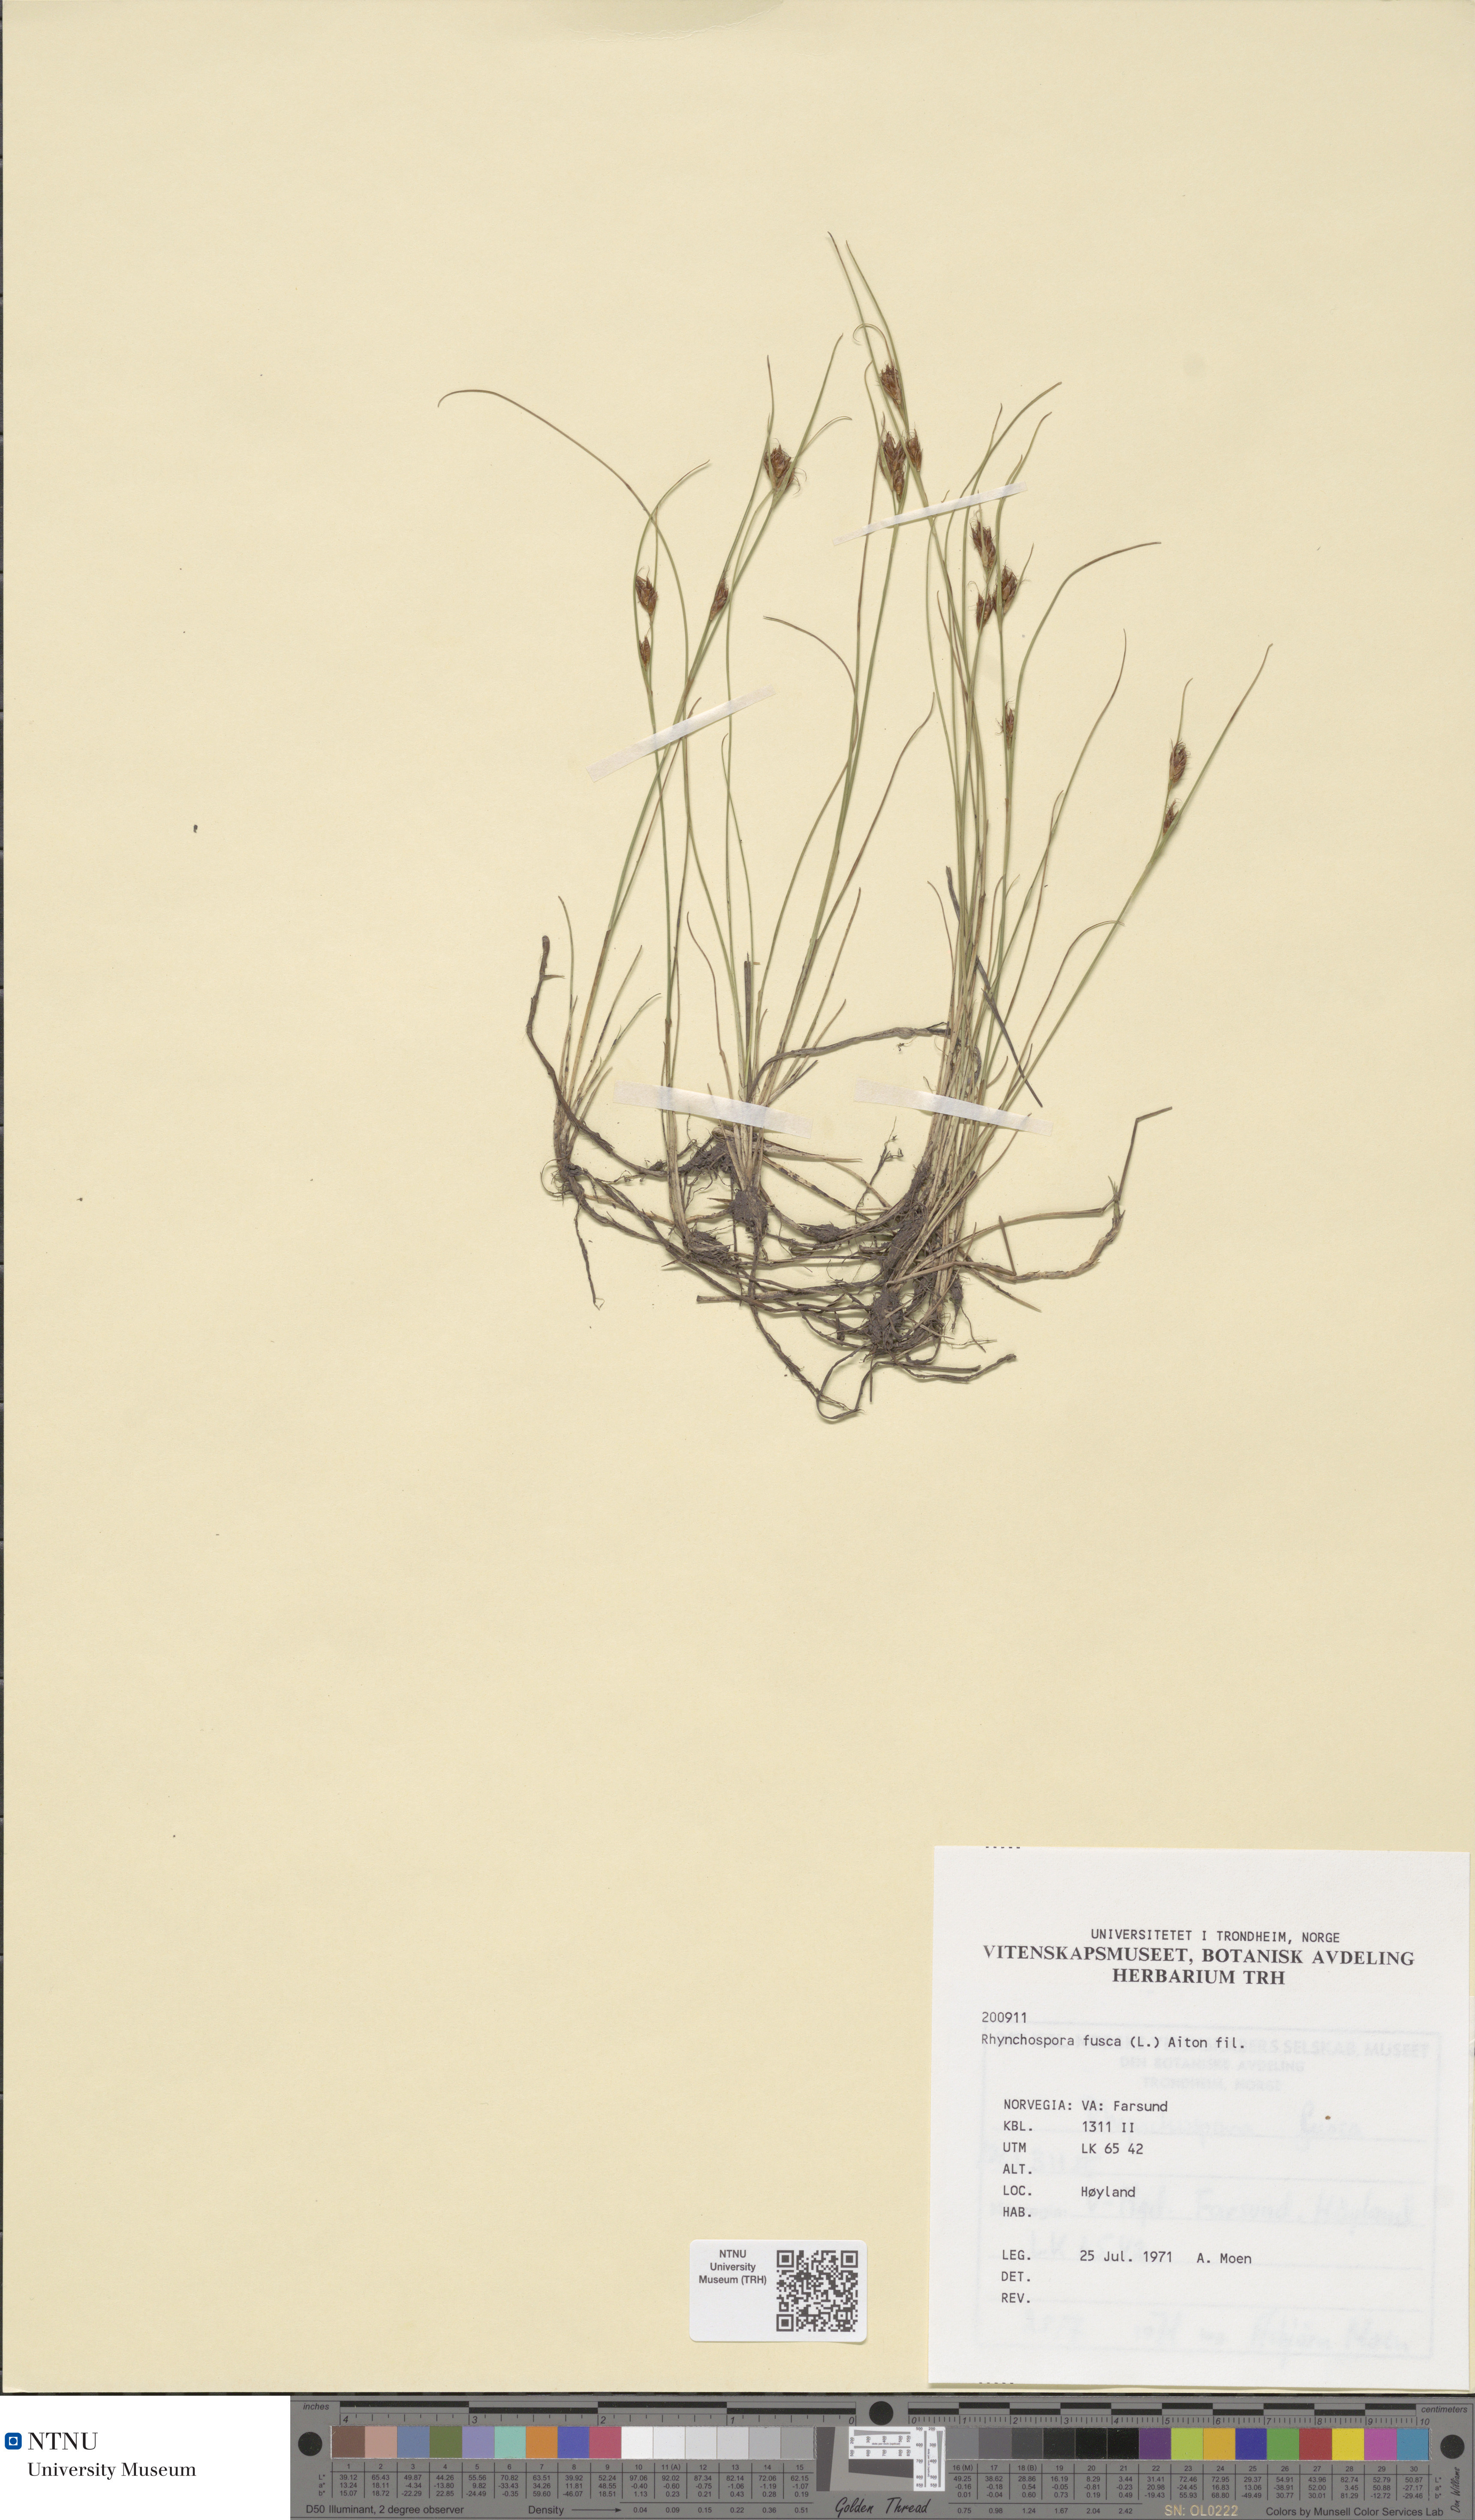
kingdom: Plantae
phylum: Tracheophyta
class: Liliopsida
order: Poales
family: Cyperaceae
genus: Rhynchospora
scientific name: Rhynchospora fusca
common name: Brown beak-sedge
